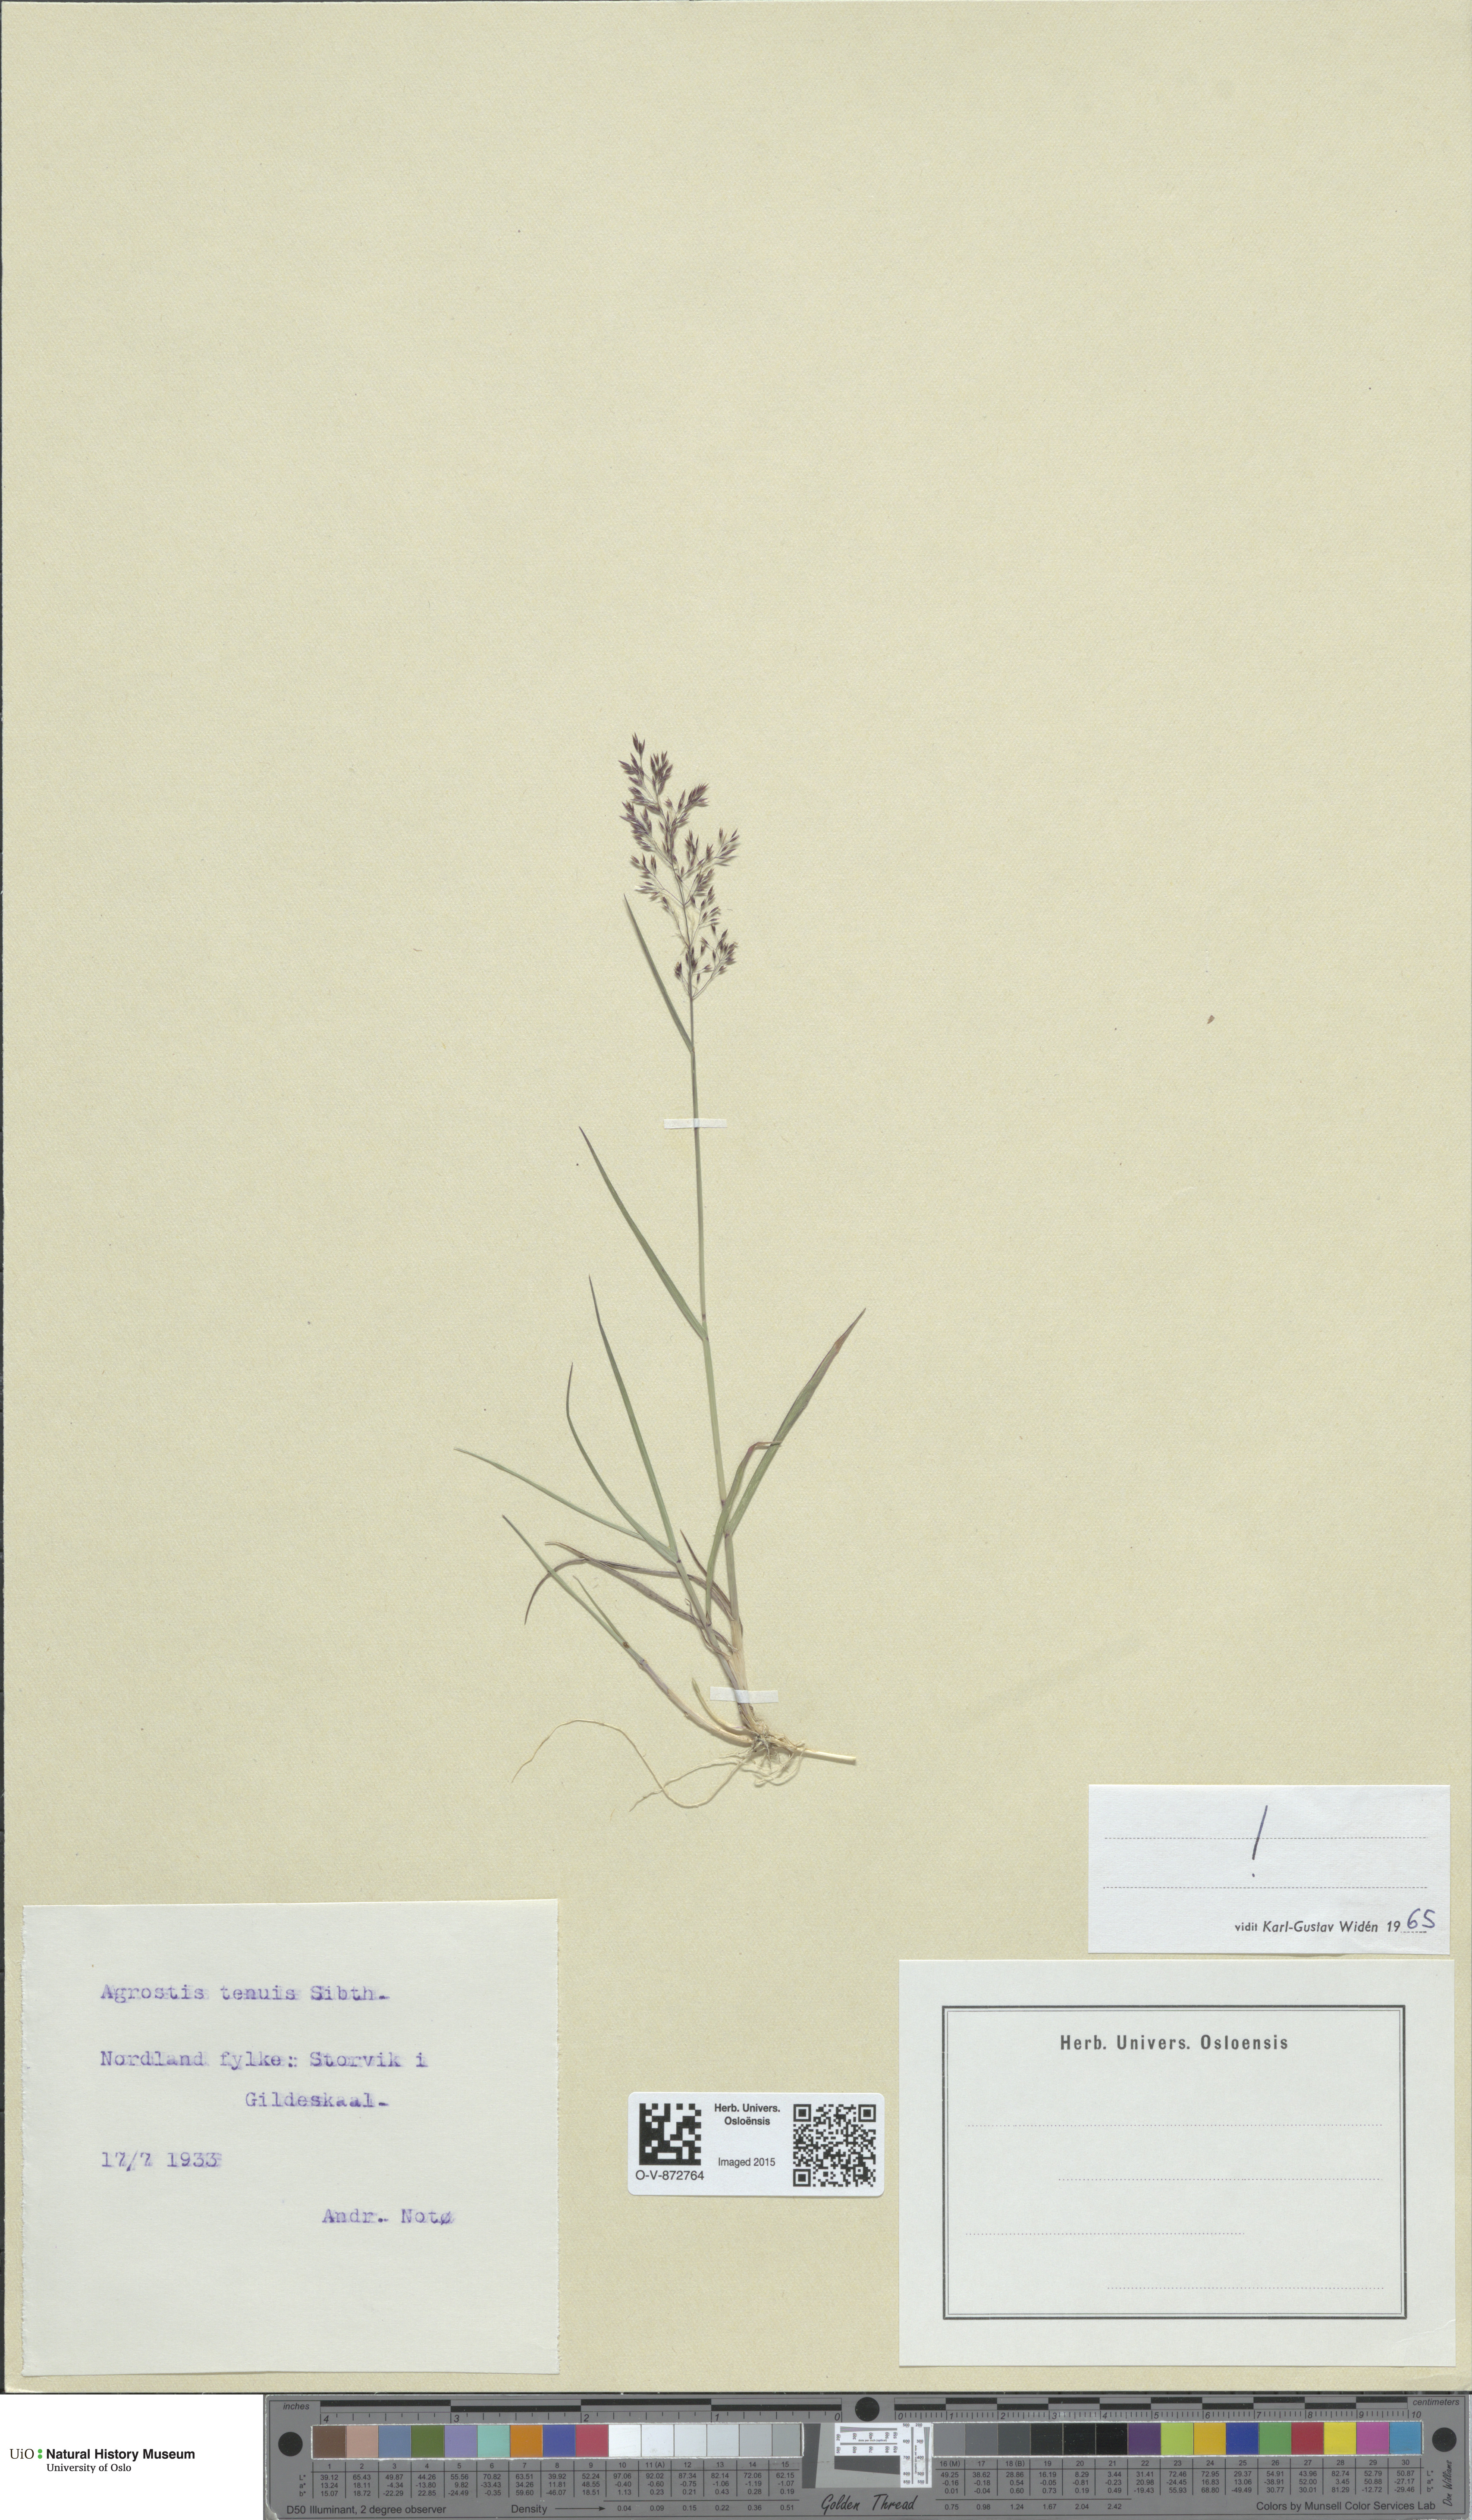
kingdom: Plantae
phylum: Tracheophyta
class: Liliopsida
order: Poales
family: Poaceae
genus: Agrostis
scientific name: Agrostis capillaris
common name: Colonial bentgrass
